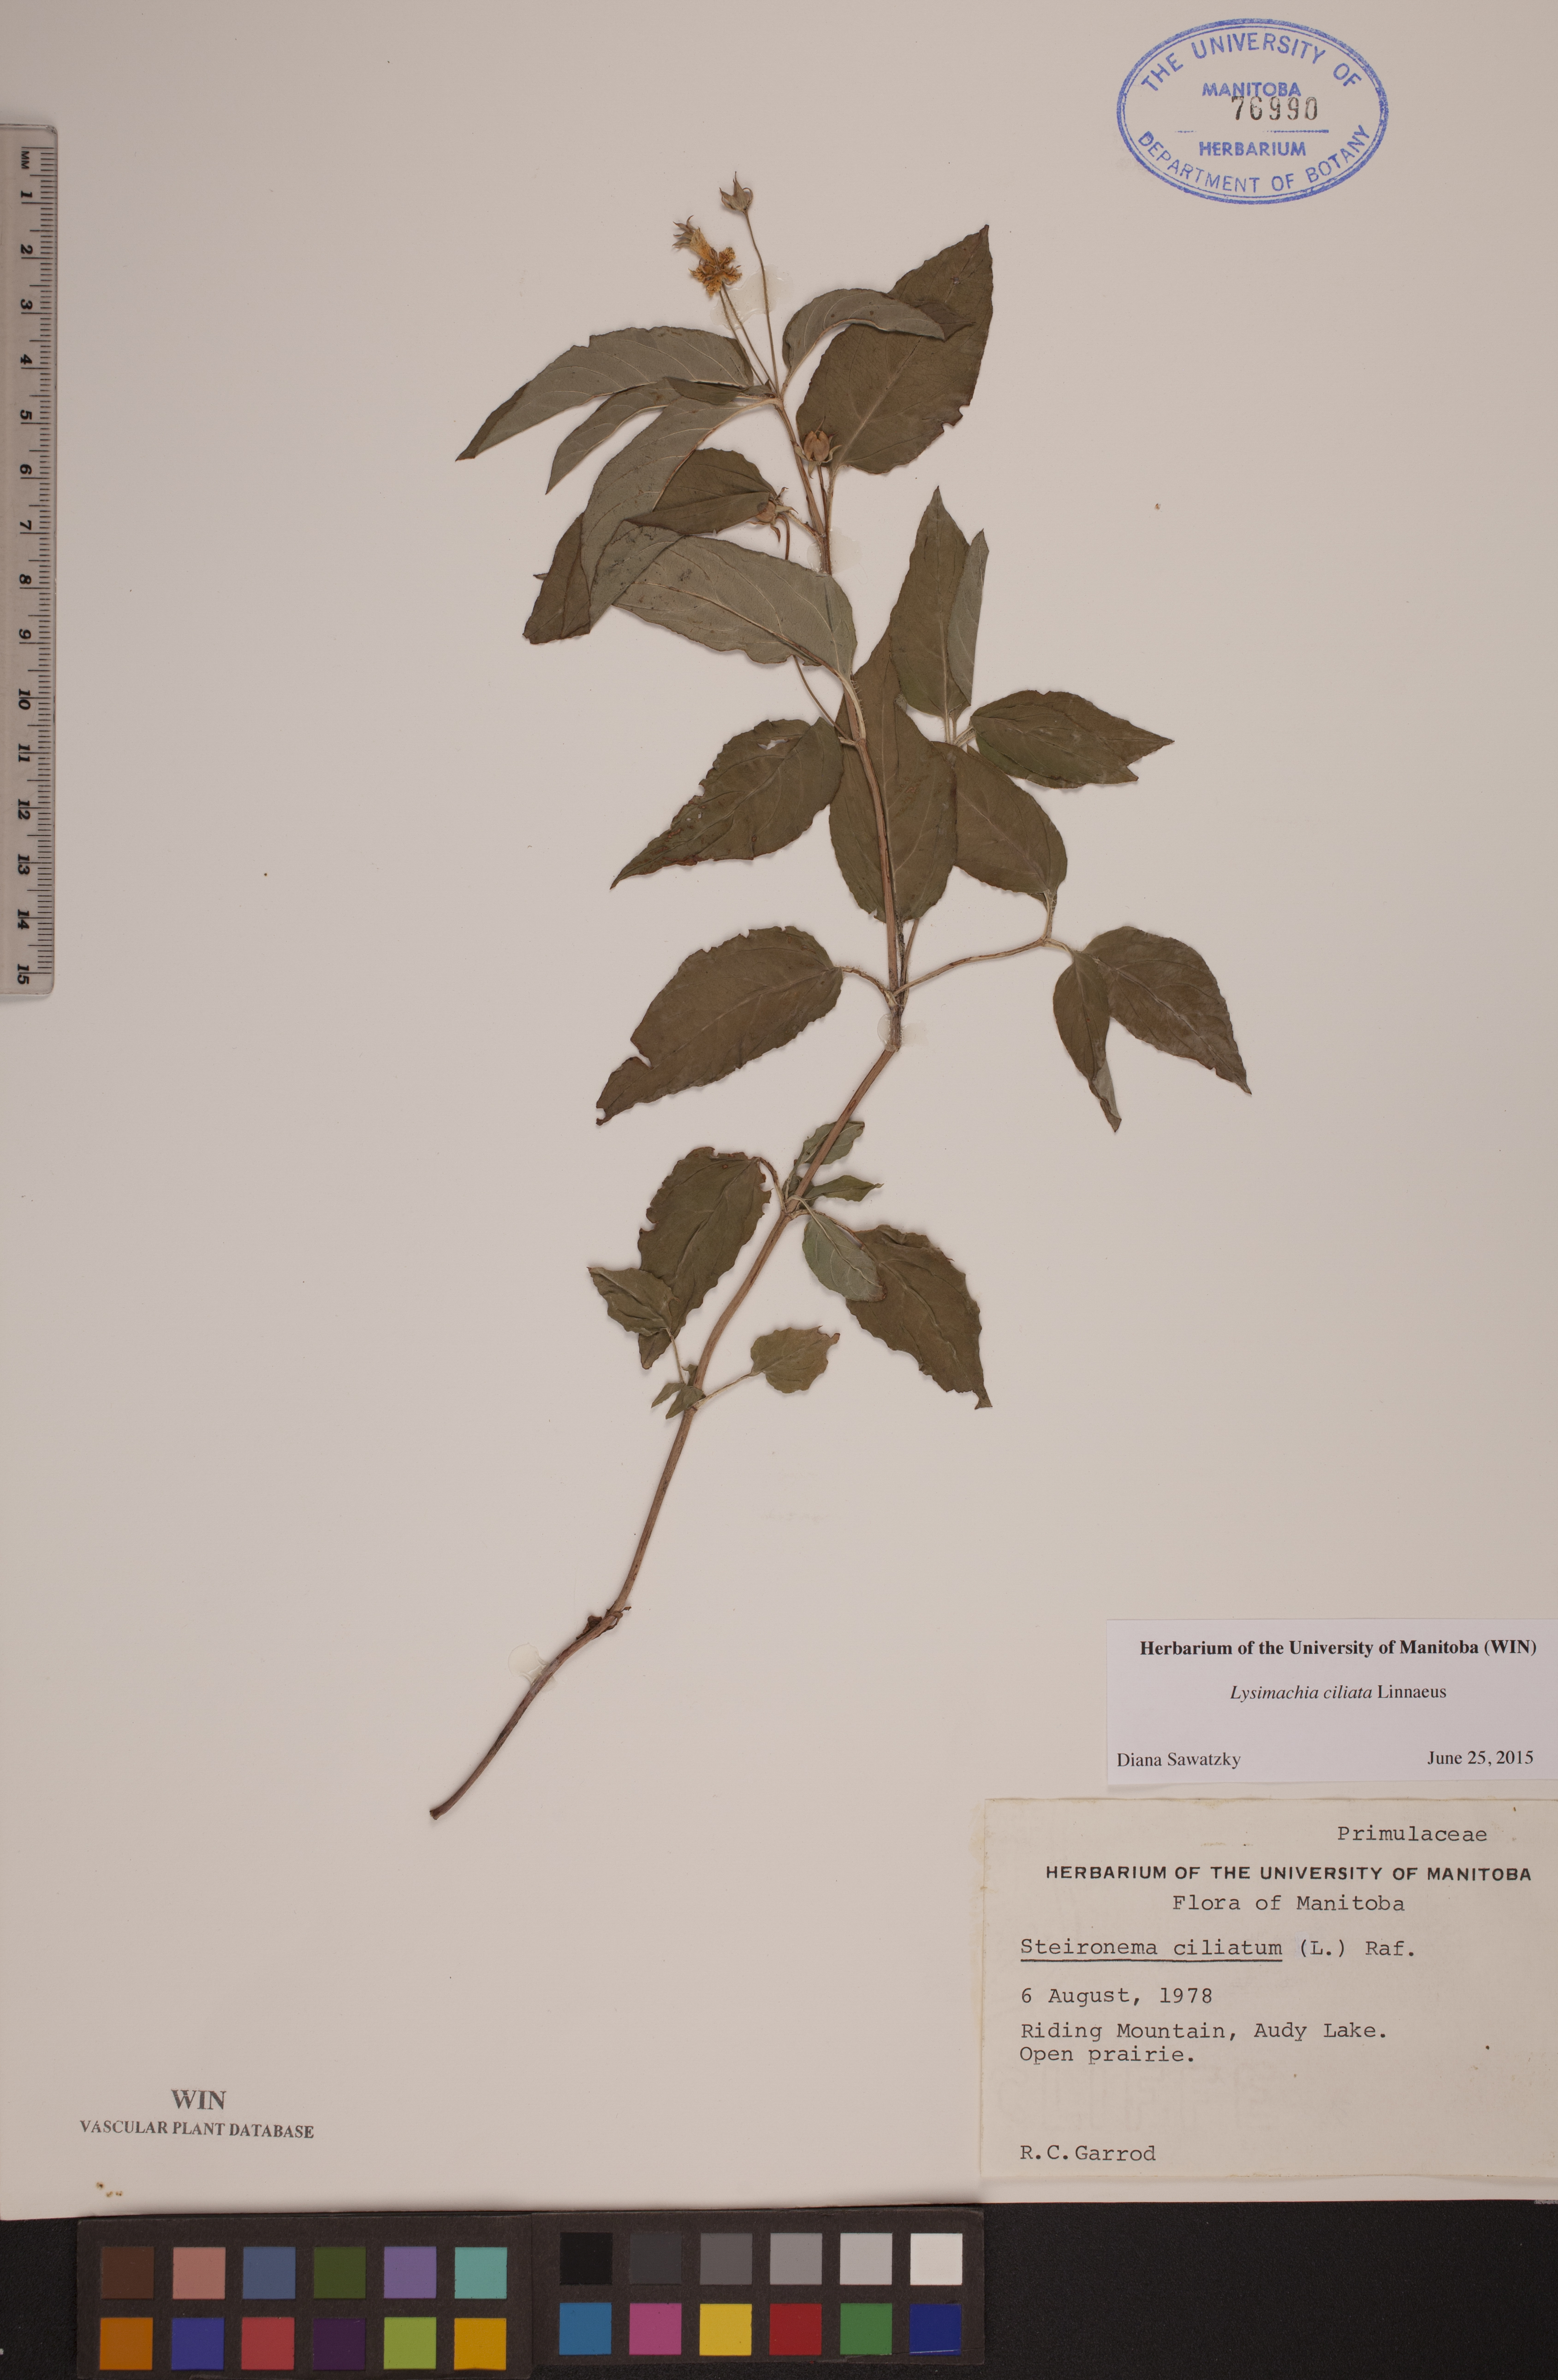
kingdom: Plantae
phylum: Tracheophyta
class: Magnoliopsida
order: Ericales
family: Primulaceae
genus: Lysimachia
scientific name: Lysimachia ciliata
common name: Fringed loosestrife
